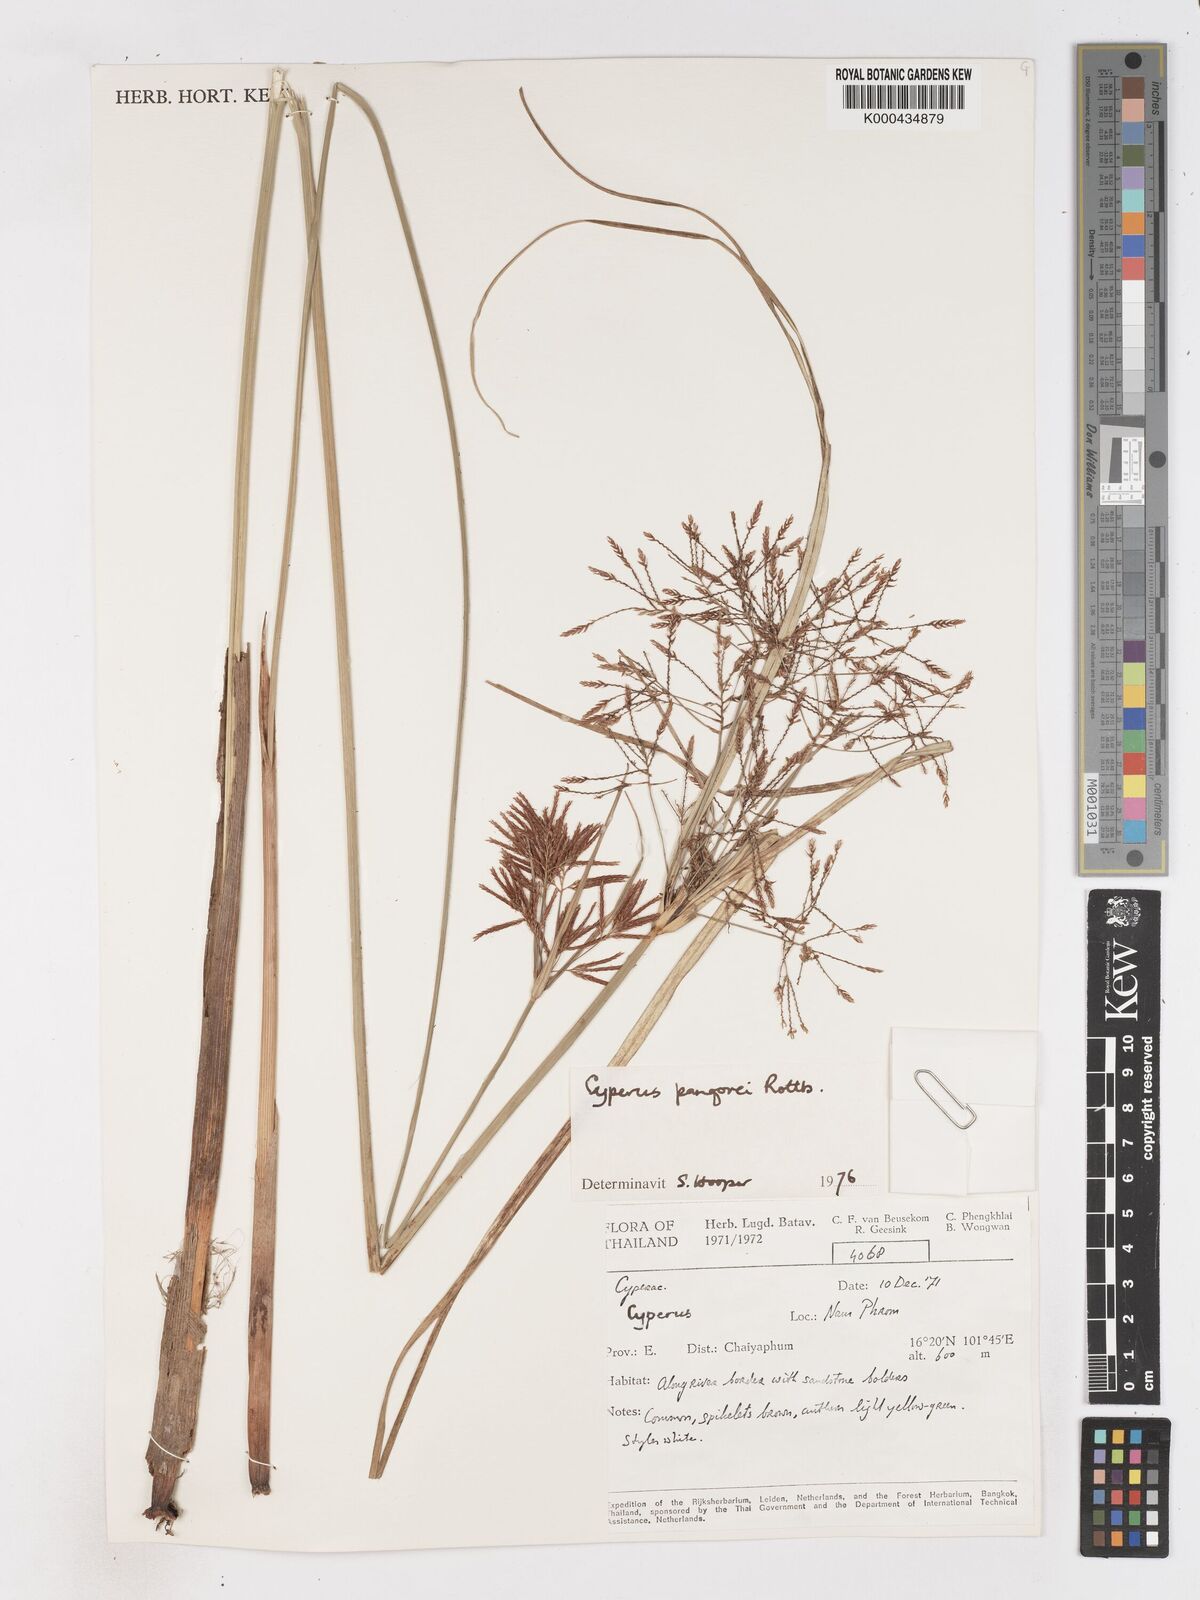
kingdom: Plantae
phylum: Tracheophyta
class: Liliopsida
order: Poales
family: Cyperaceae
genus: Cyperus
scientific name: Cyperus pangorei
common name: Mat sedge
